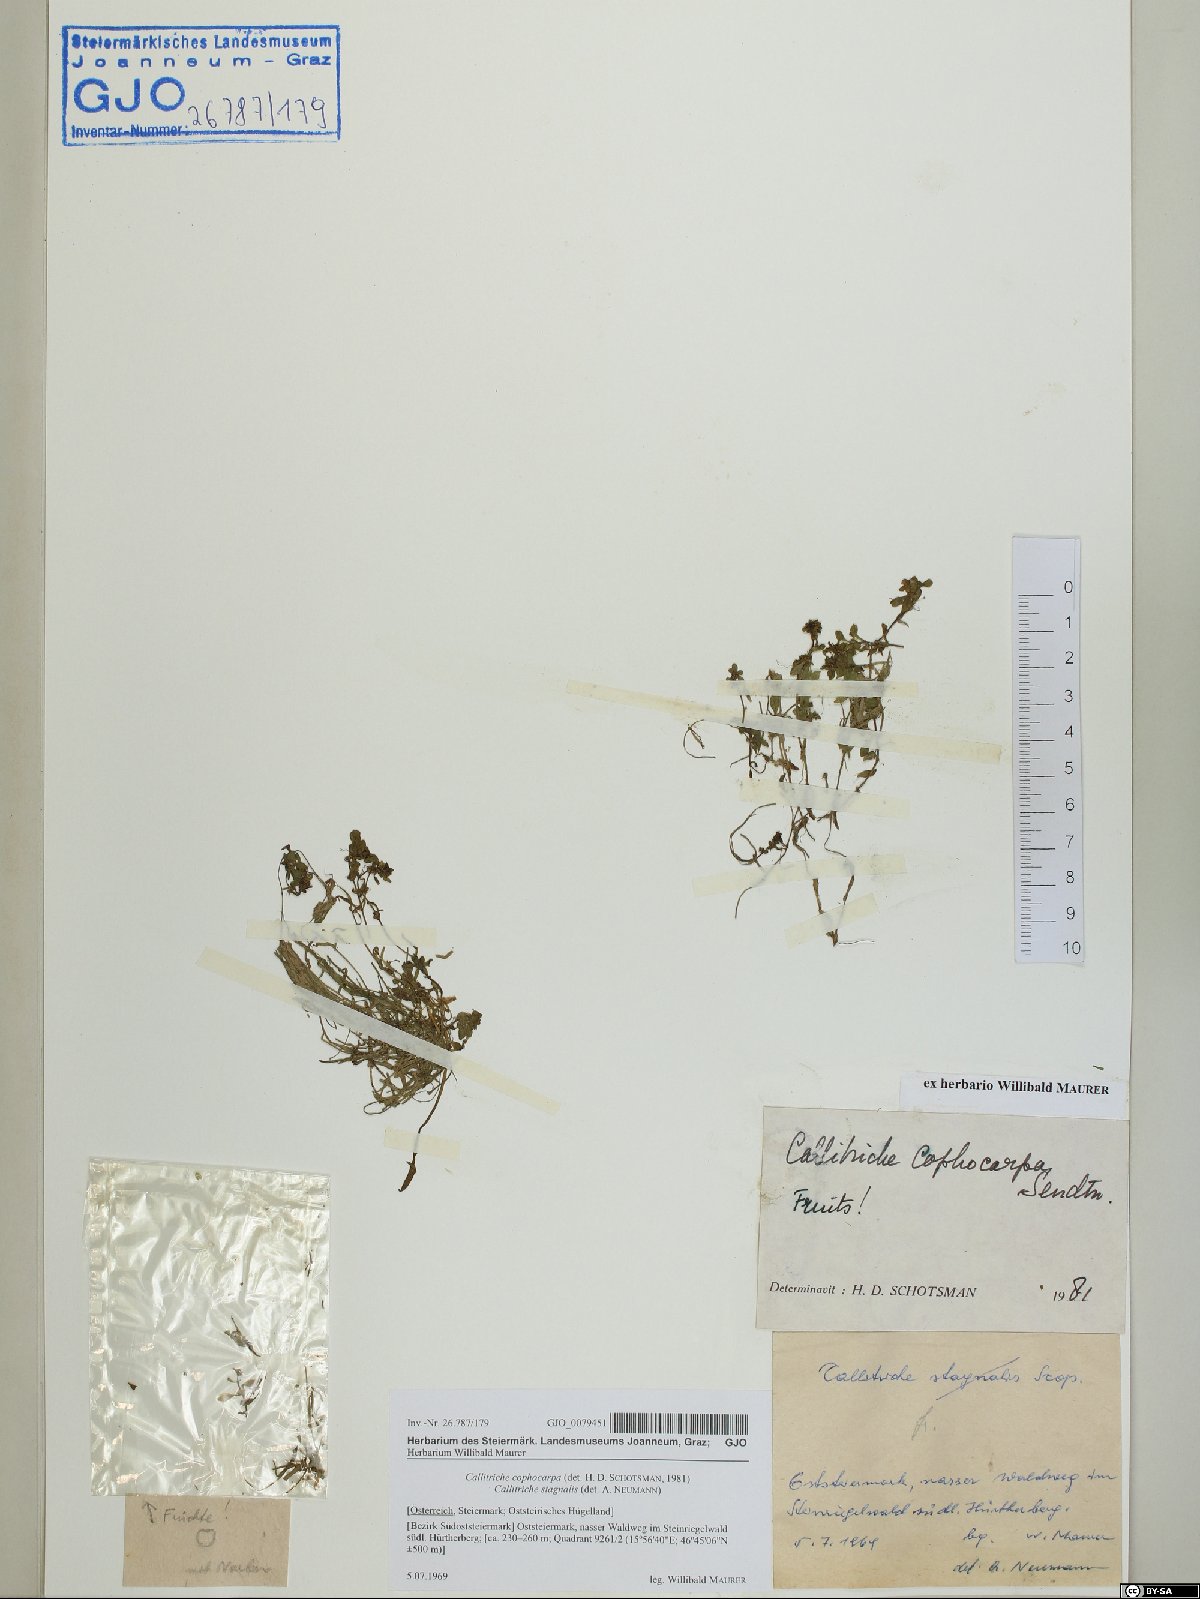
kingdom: Plantae
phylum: Tracheophyta
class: Magnoliopsida
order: Lamiales
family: Plantaginaceae
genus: Callitriche
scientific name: Callitriche cophocarpa
